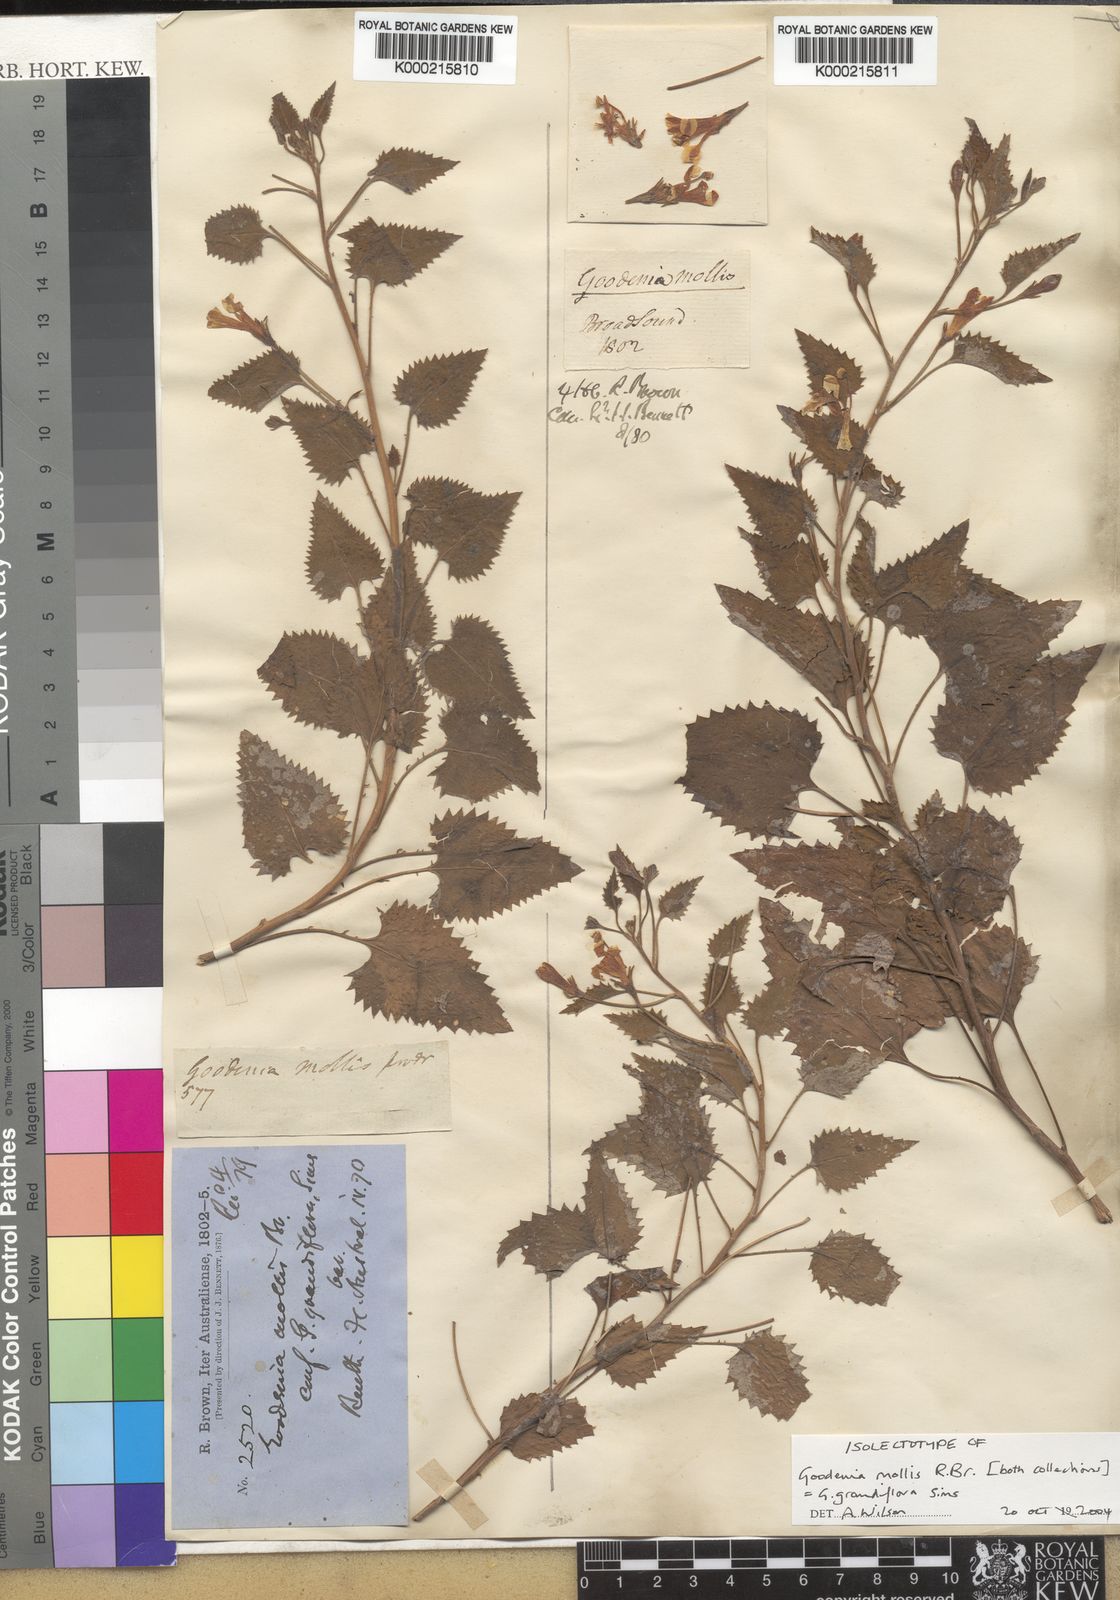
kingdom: Plantae
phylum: Tracheophyta
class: Magnoliopsida
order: Asterales
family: Goodeniaceae
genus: Goodenia
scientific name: Goodenia
